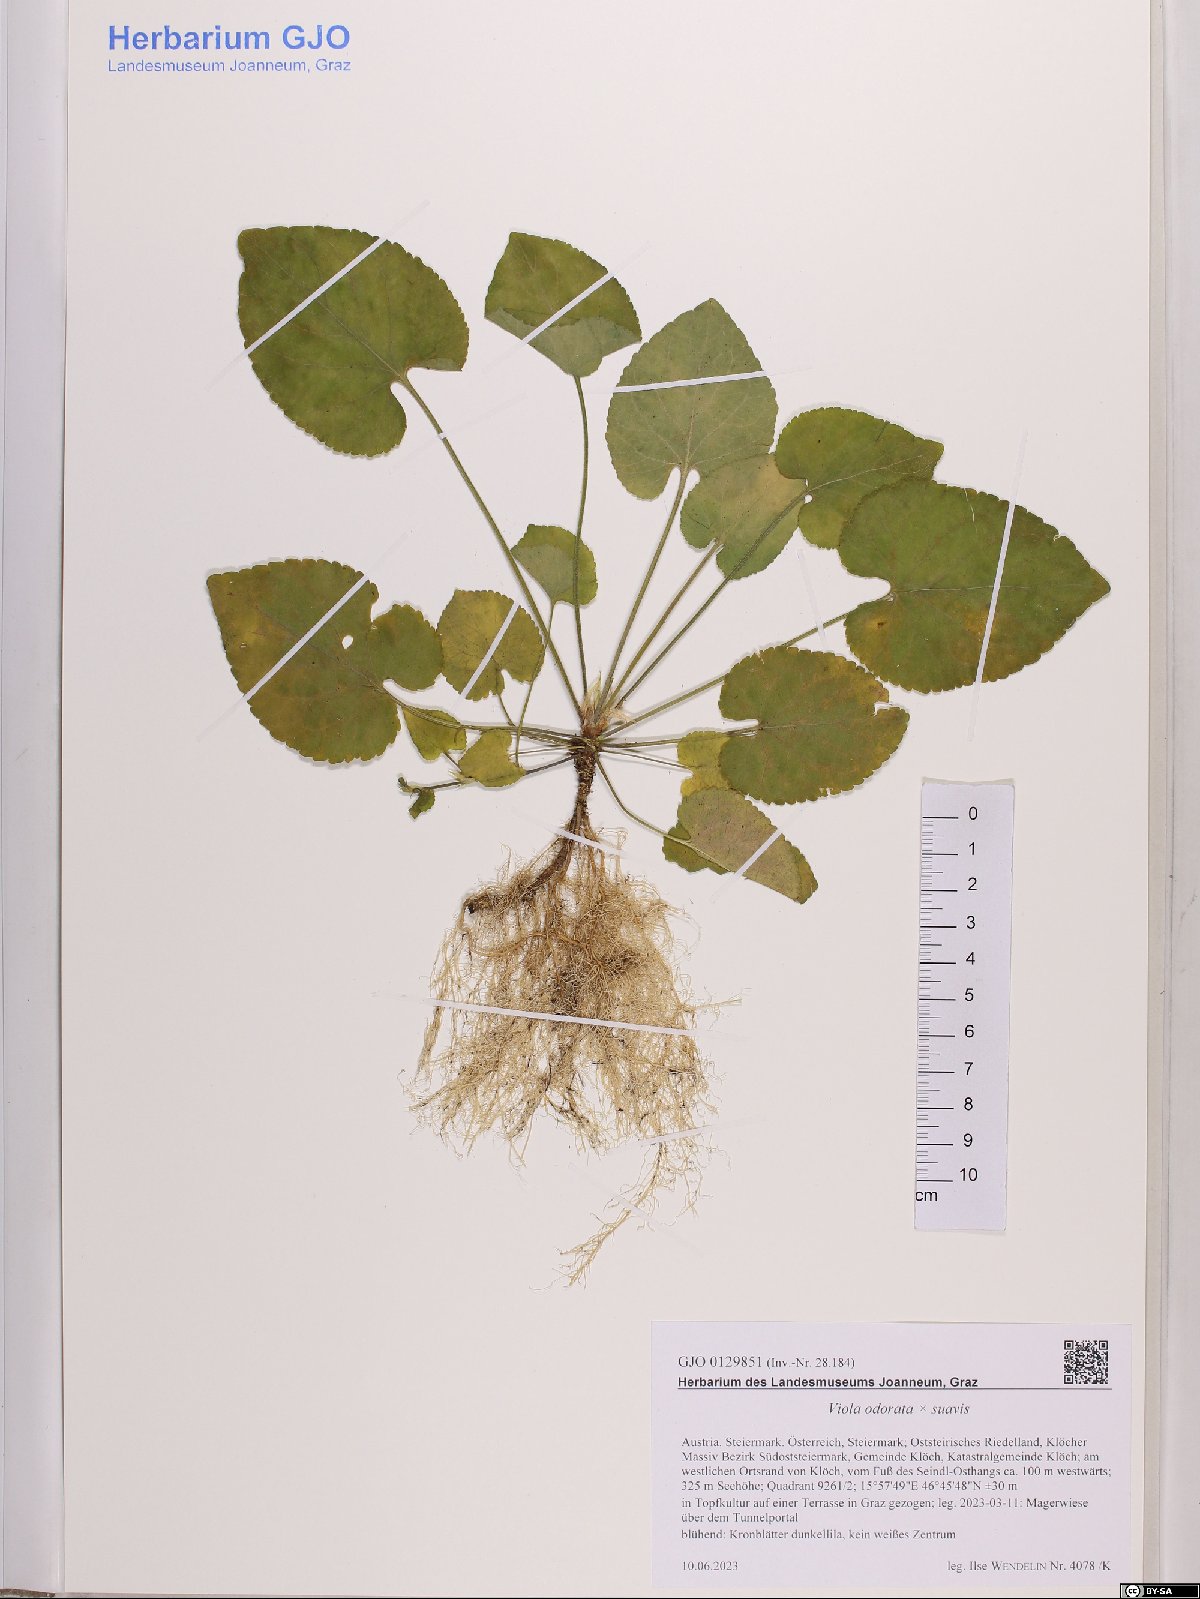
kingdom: Plantae
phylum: Tracheophyta
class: Magnoliopsida
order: Malpighiales
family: Violaceae
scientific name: Violaceae
